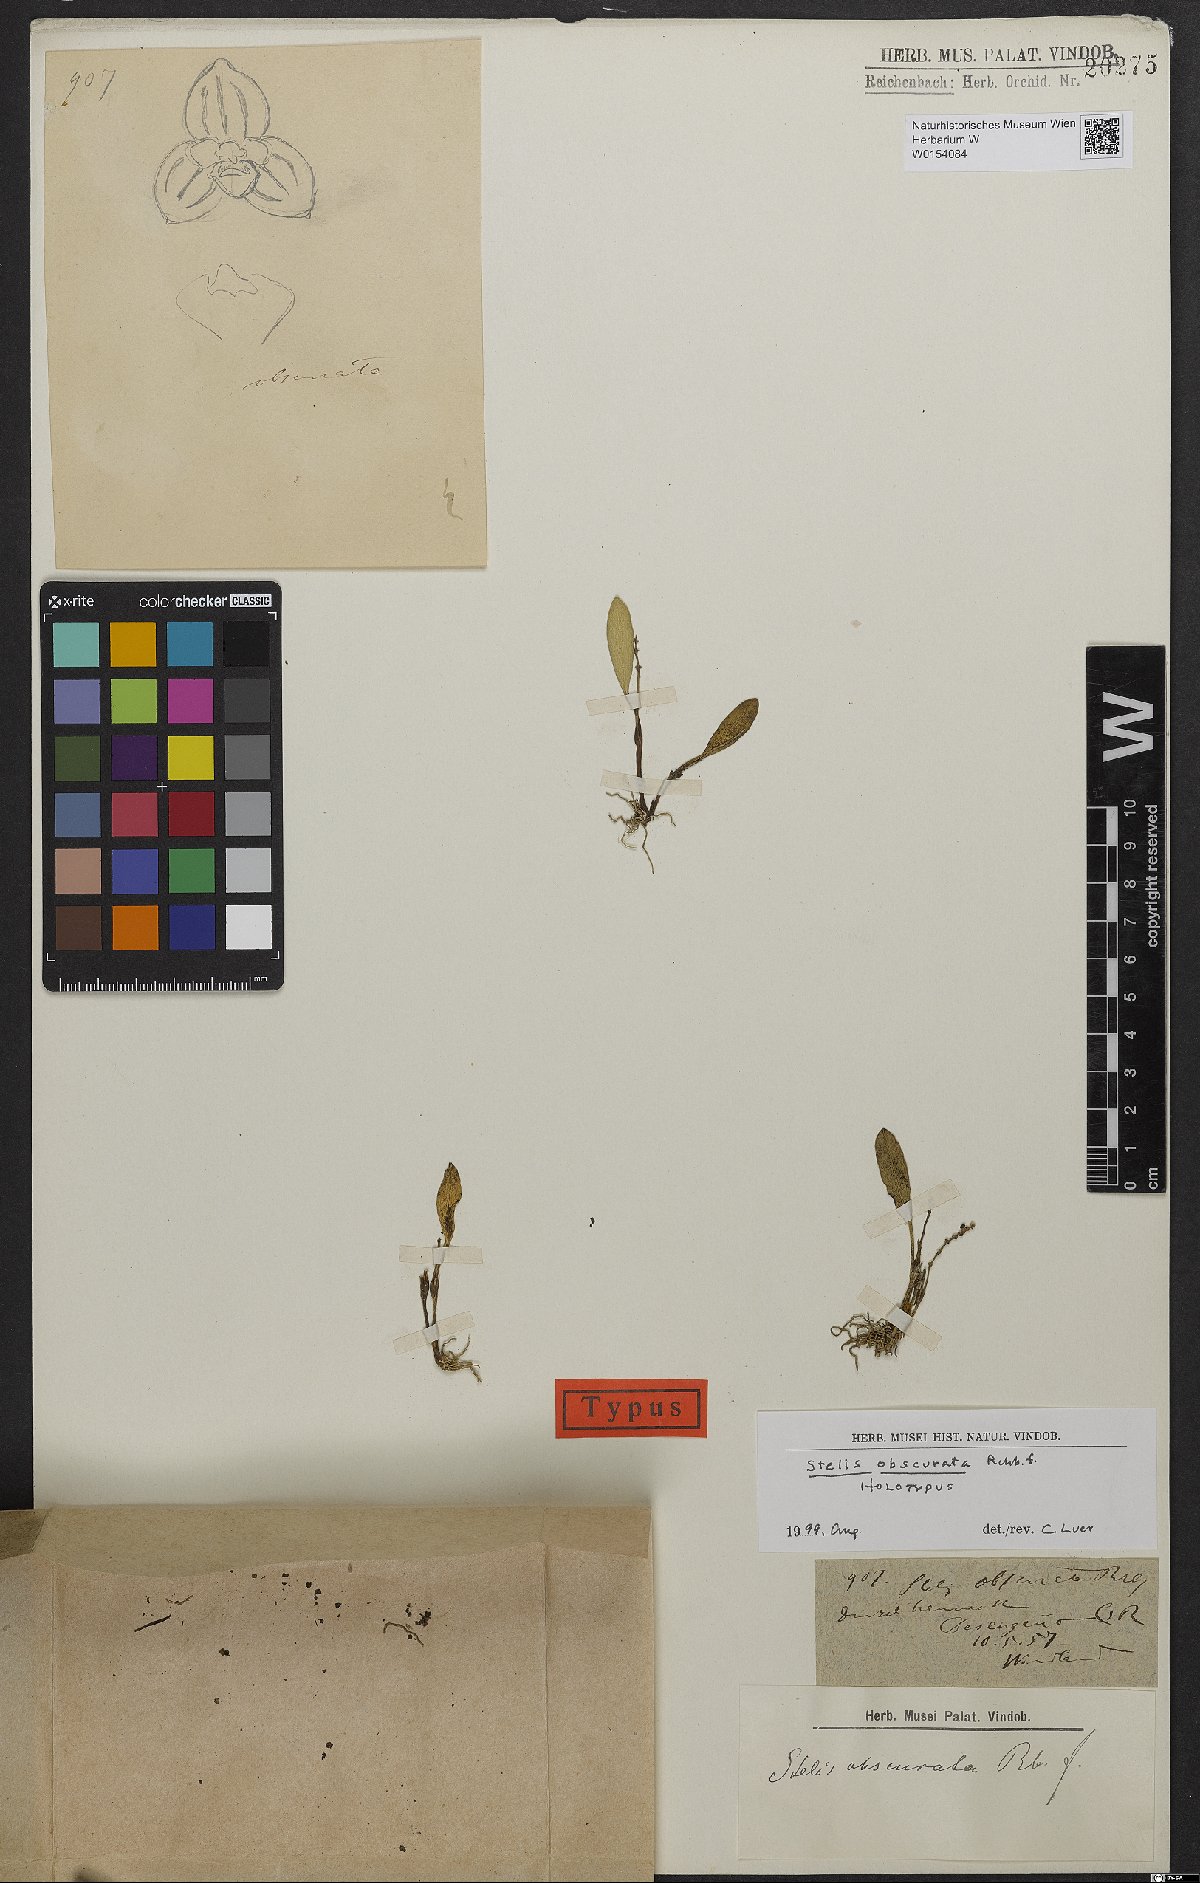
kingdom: Plantae
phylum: Tracheophyta
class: Liliopsida
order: Asparagales
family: Orchidaceae
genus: Stelis
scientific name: Stelis obscurata
